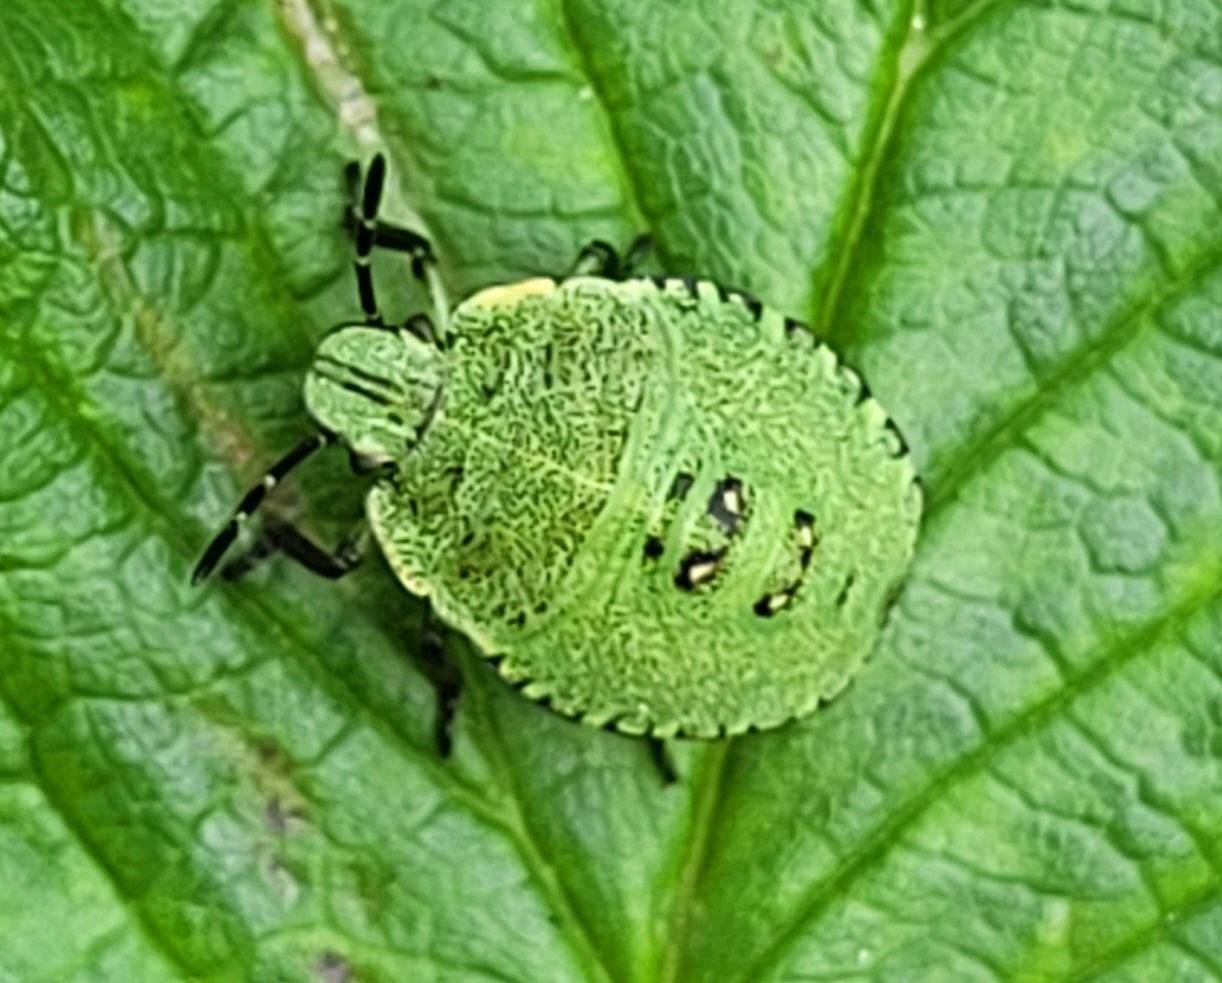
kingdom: Animalia
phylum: Arthropoda
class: Insecta
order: Hemiptera
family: Pentatomidae
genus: Palomena
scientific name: Palomena prasina
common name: Grøn bredtæge
